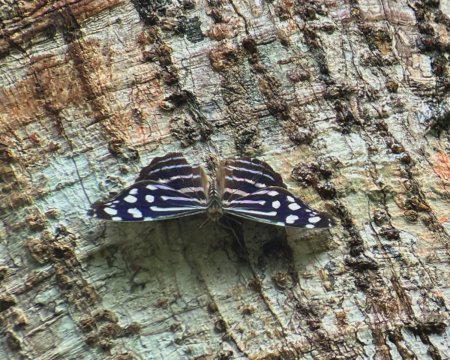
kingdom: Animalia
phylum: Arthropoda
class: Insecta
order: Lepidoptera
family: Nymphalidae
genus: Myscelia
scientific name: Myscelia cyaniris
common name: Whitened Bluewing
